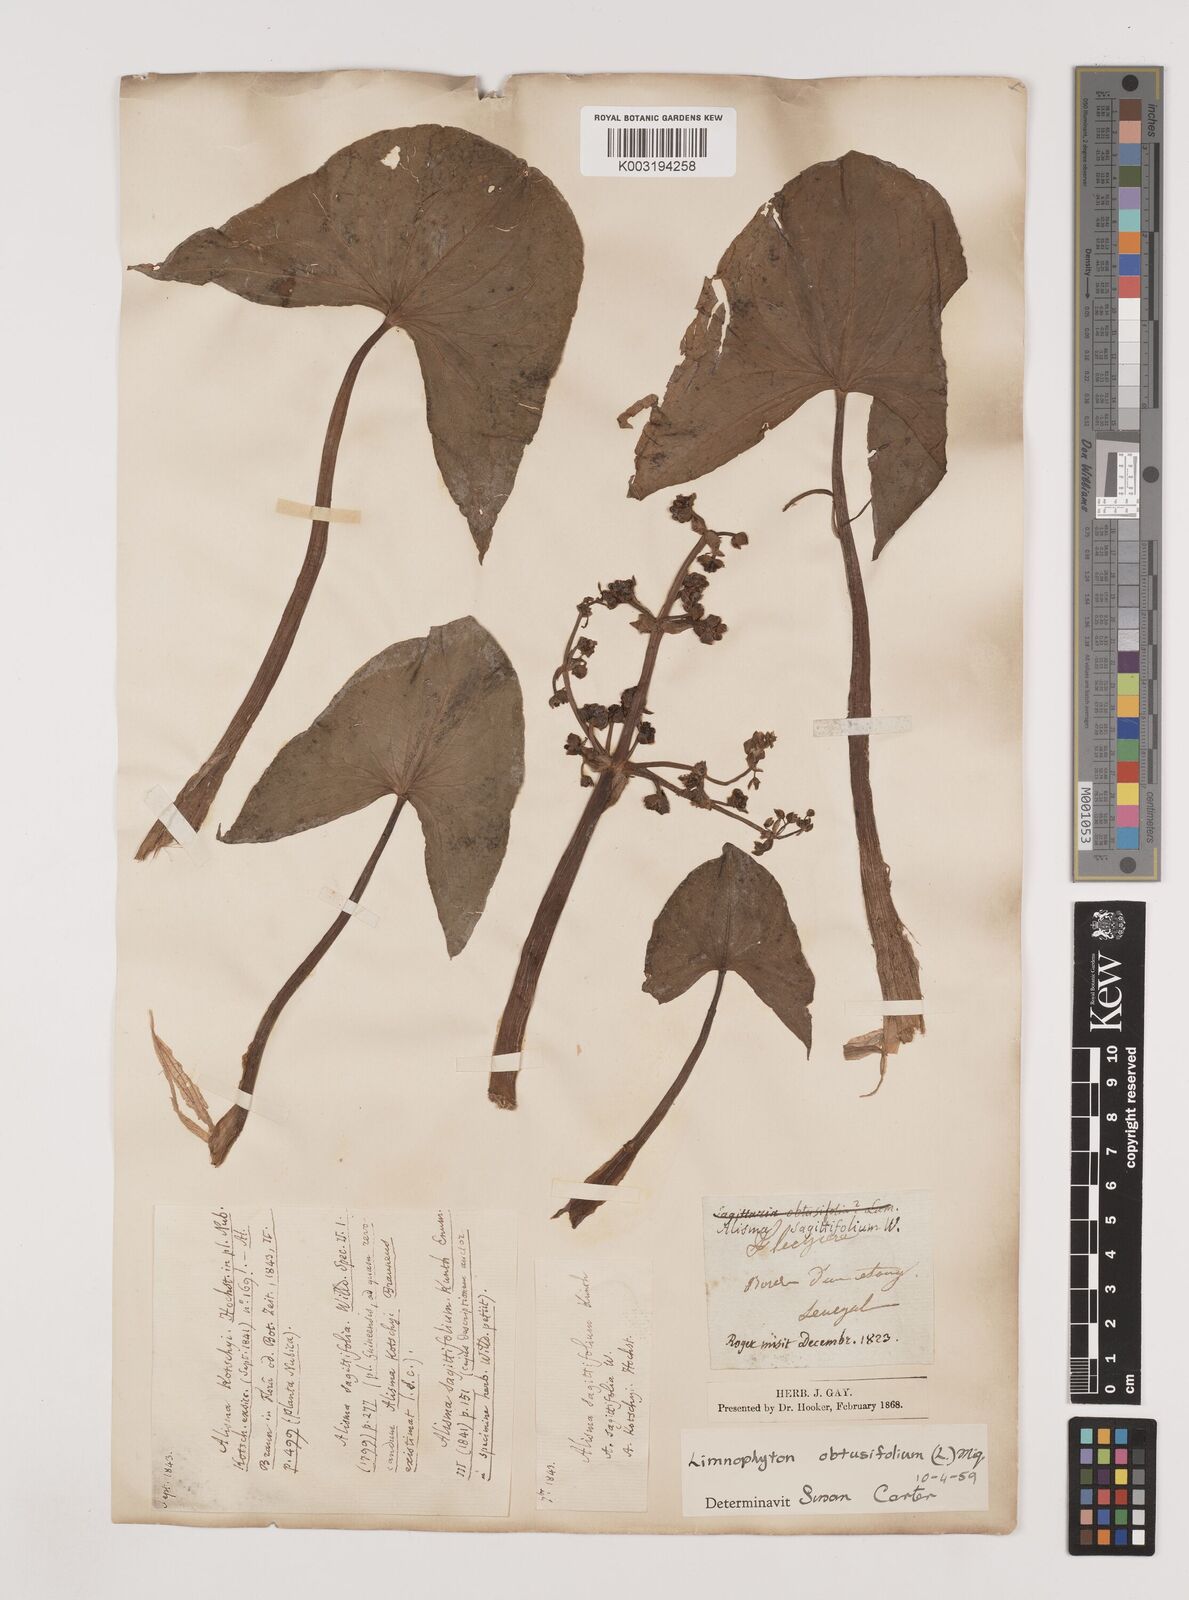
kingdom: Plantae
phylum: Tracheophyta
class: Liliopsida
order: Alismatales
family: Alismataceae
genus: Limnophyton
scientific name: Limnophyton obtusifolium
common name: Arrow head
